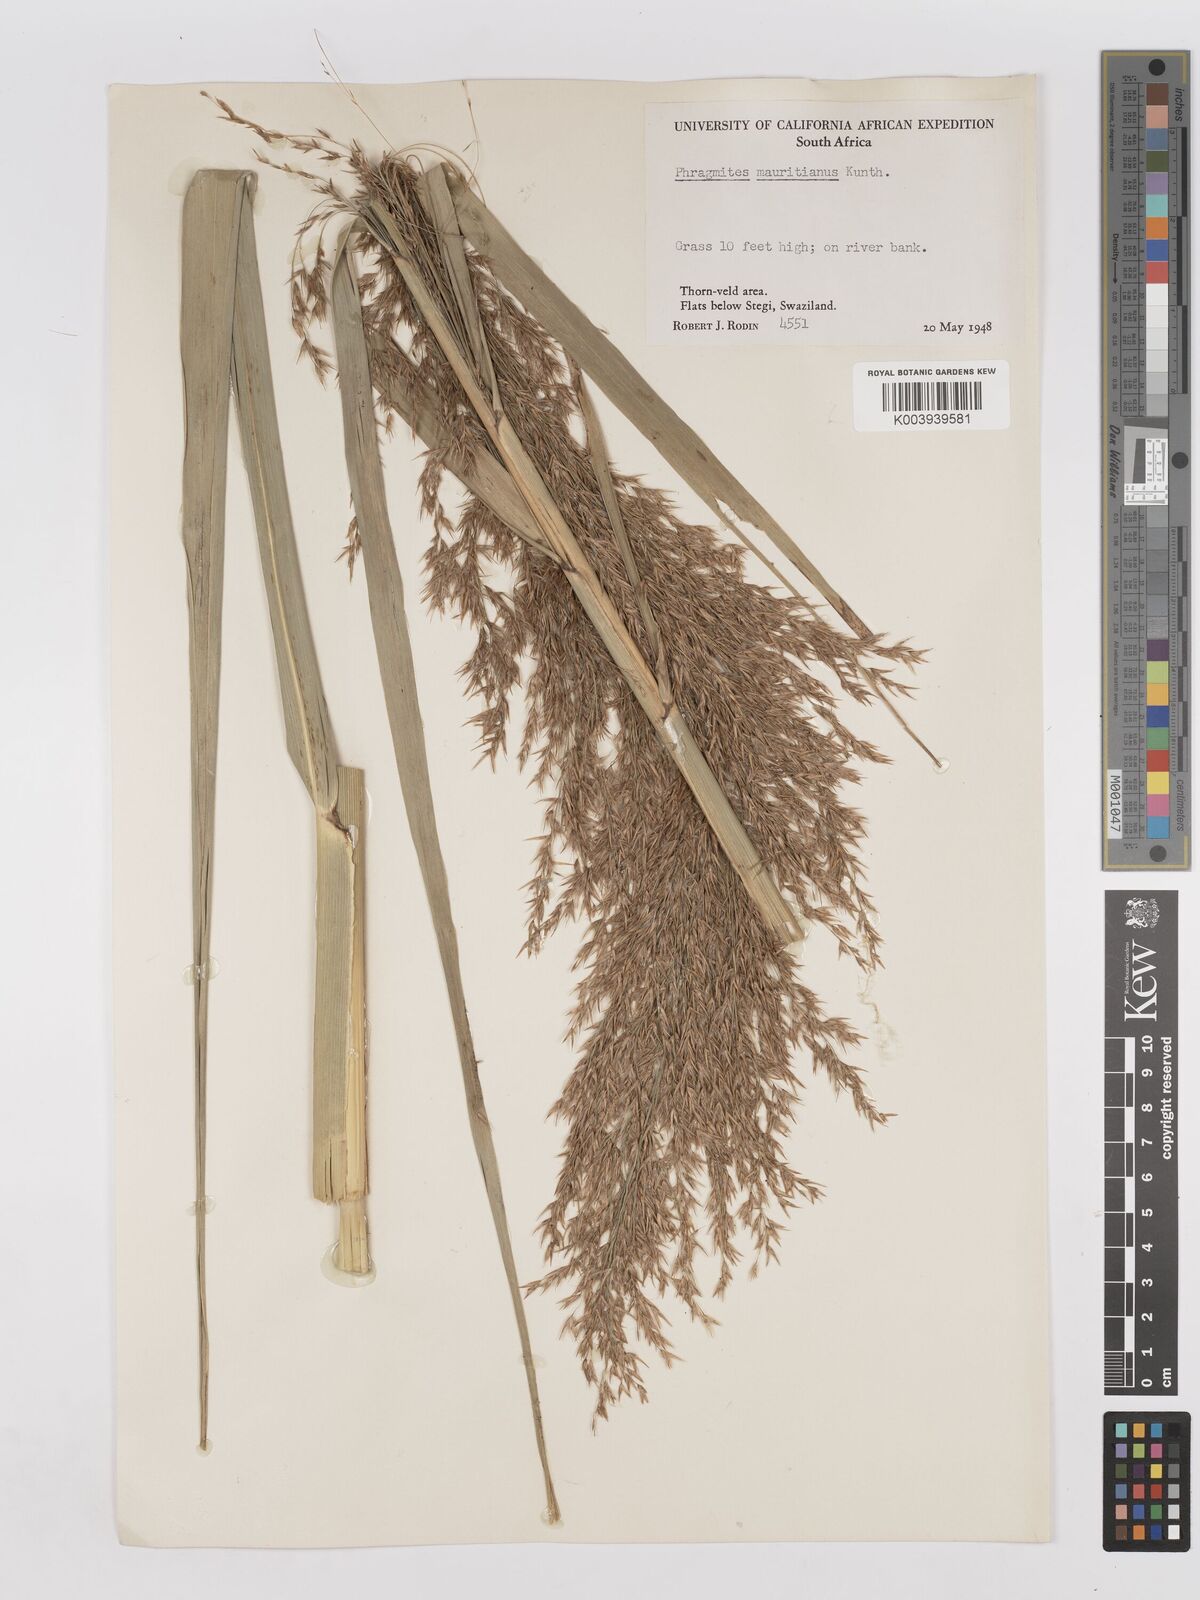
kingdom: Plantae
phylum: Tracheophyta
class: Liliopsida
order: Poales
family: Poaceae
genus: Phragmites
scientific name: Phragmites mauritianus
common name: Reed grass
